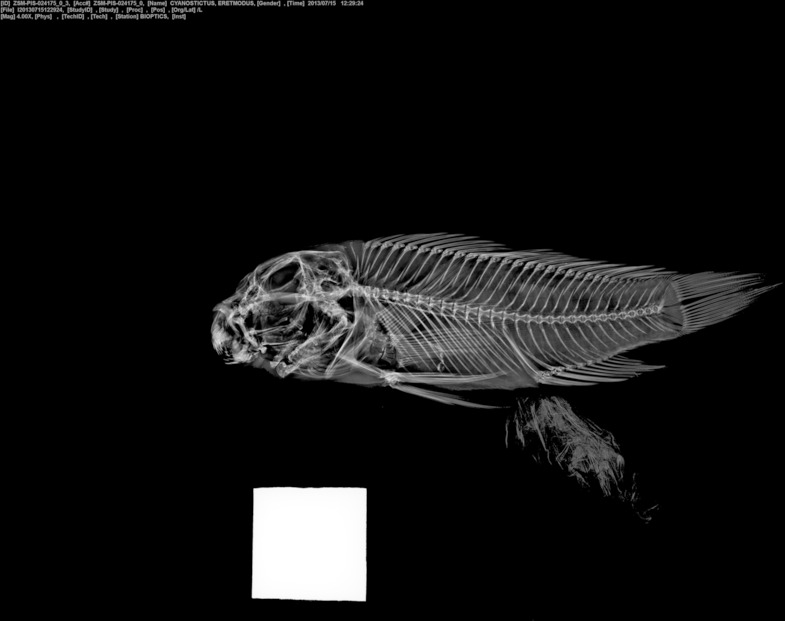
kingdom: Animalia
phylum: Chordata
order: Perciformes
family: Cichlidae
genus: Eretmodus
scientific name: Eretmodus cyanostictus
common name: Tanganyika clown
